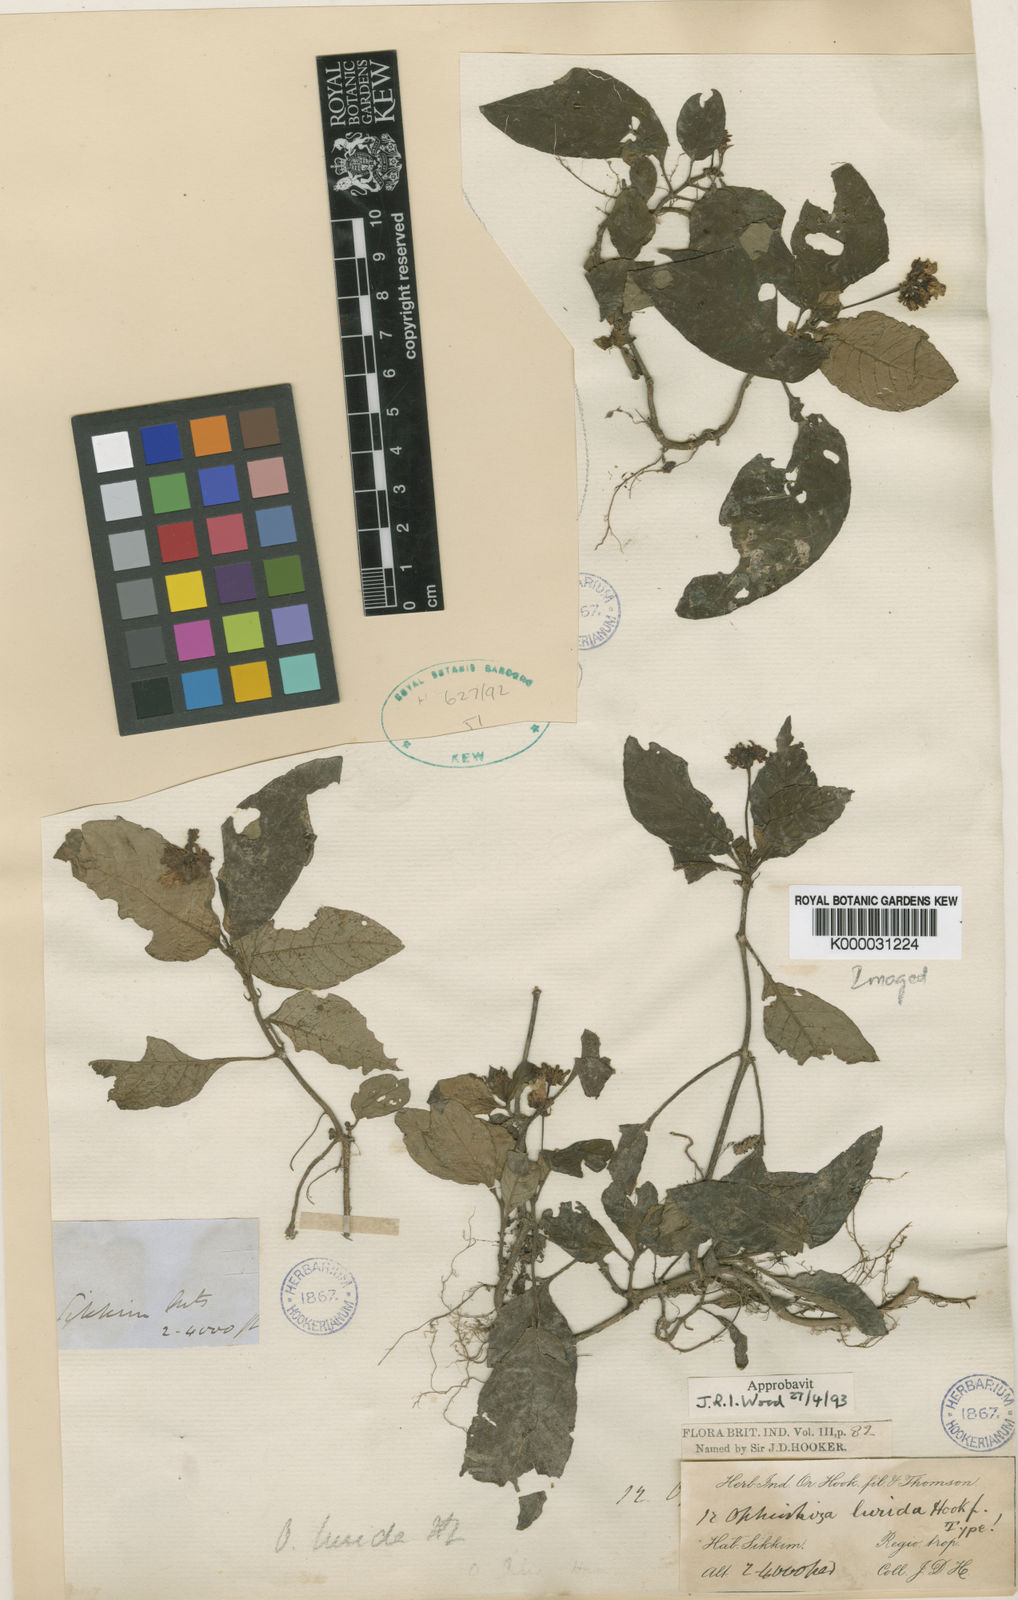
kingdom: Plantae
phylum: Tracheophyta
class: Magnoliopsida
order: Gentianales
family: Rubiaceae
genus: Ophiorrhiza
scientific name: Ophiorrhiza lurida
